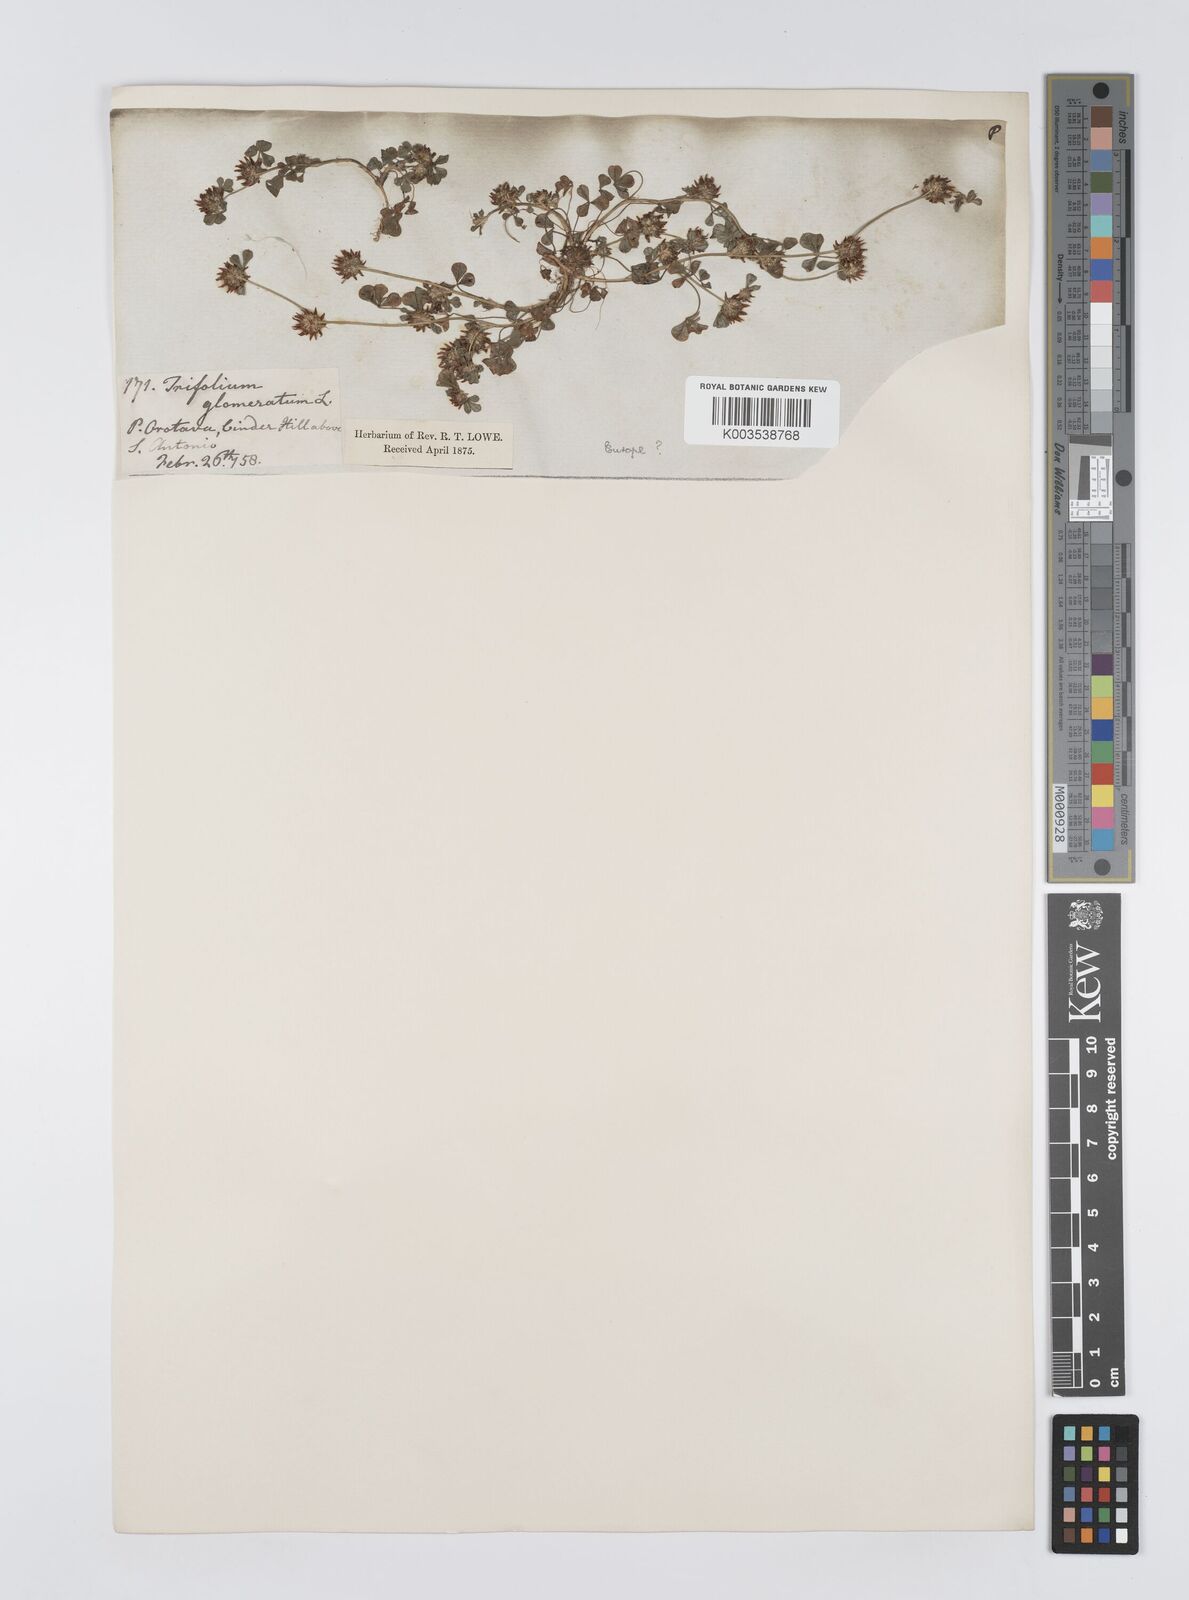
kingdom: Plantae
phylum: Tracheophyta
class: Magnoliopsida
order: Fabales
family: Fabaceae
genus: Trifolium
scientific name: Trifolium glomeratum
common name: Clustered clover
